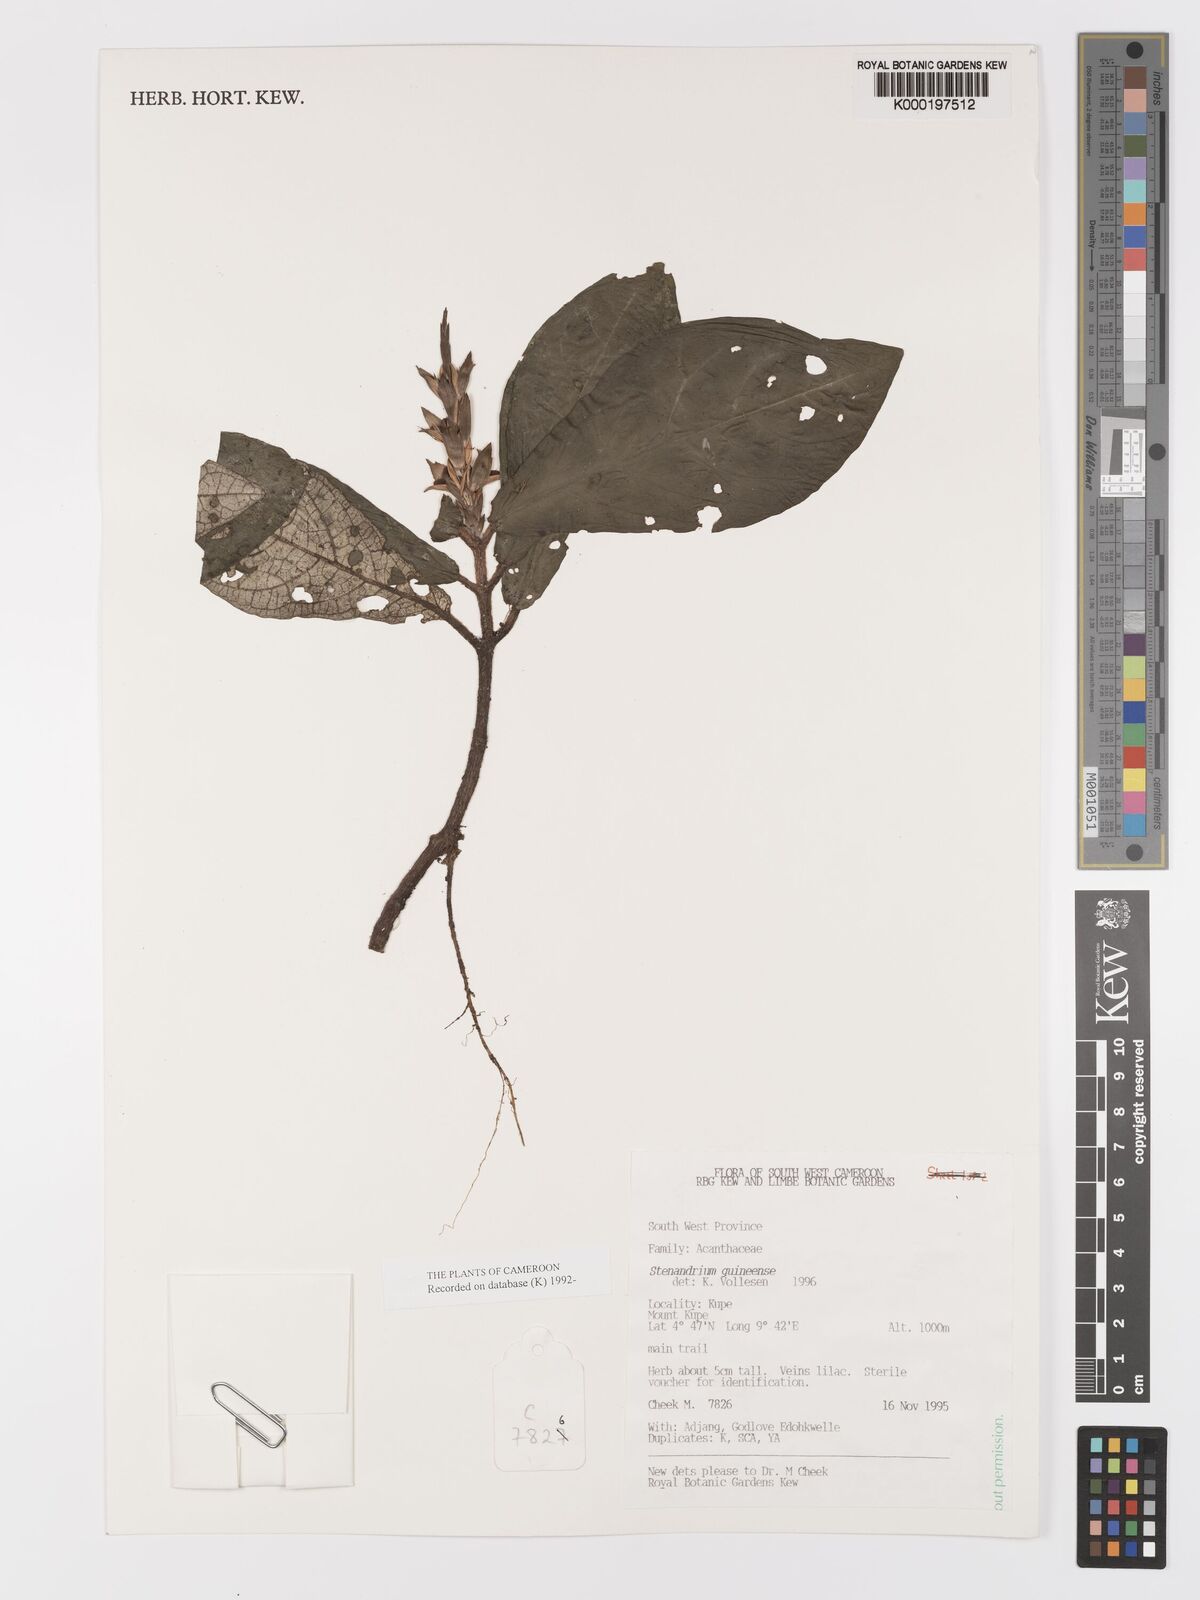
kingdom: Plantae
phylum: Tracheophyta
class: Magnoliopsida
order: Lamiales
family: Acanthaceae
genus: Stenandriopsis
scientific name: Stenandriopsis guineensis
